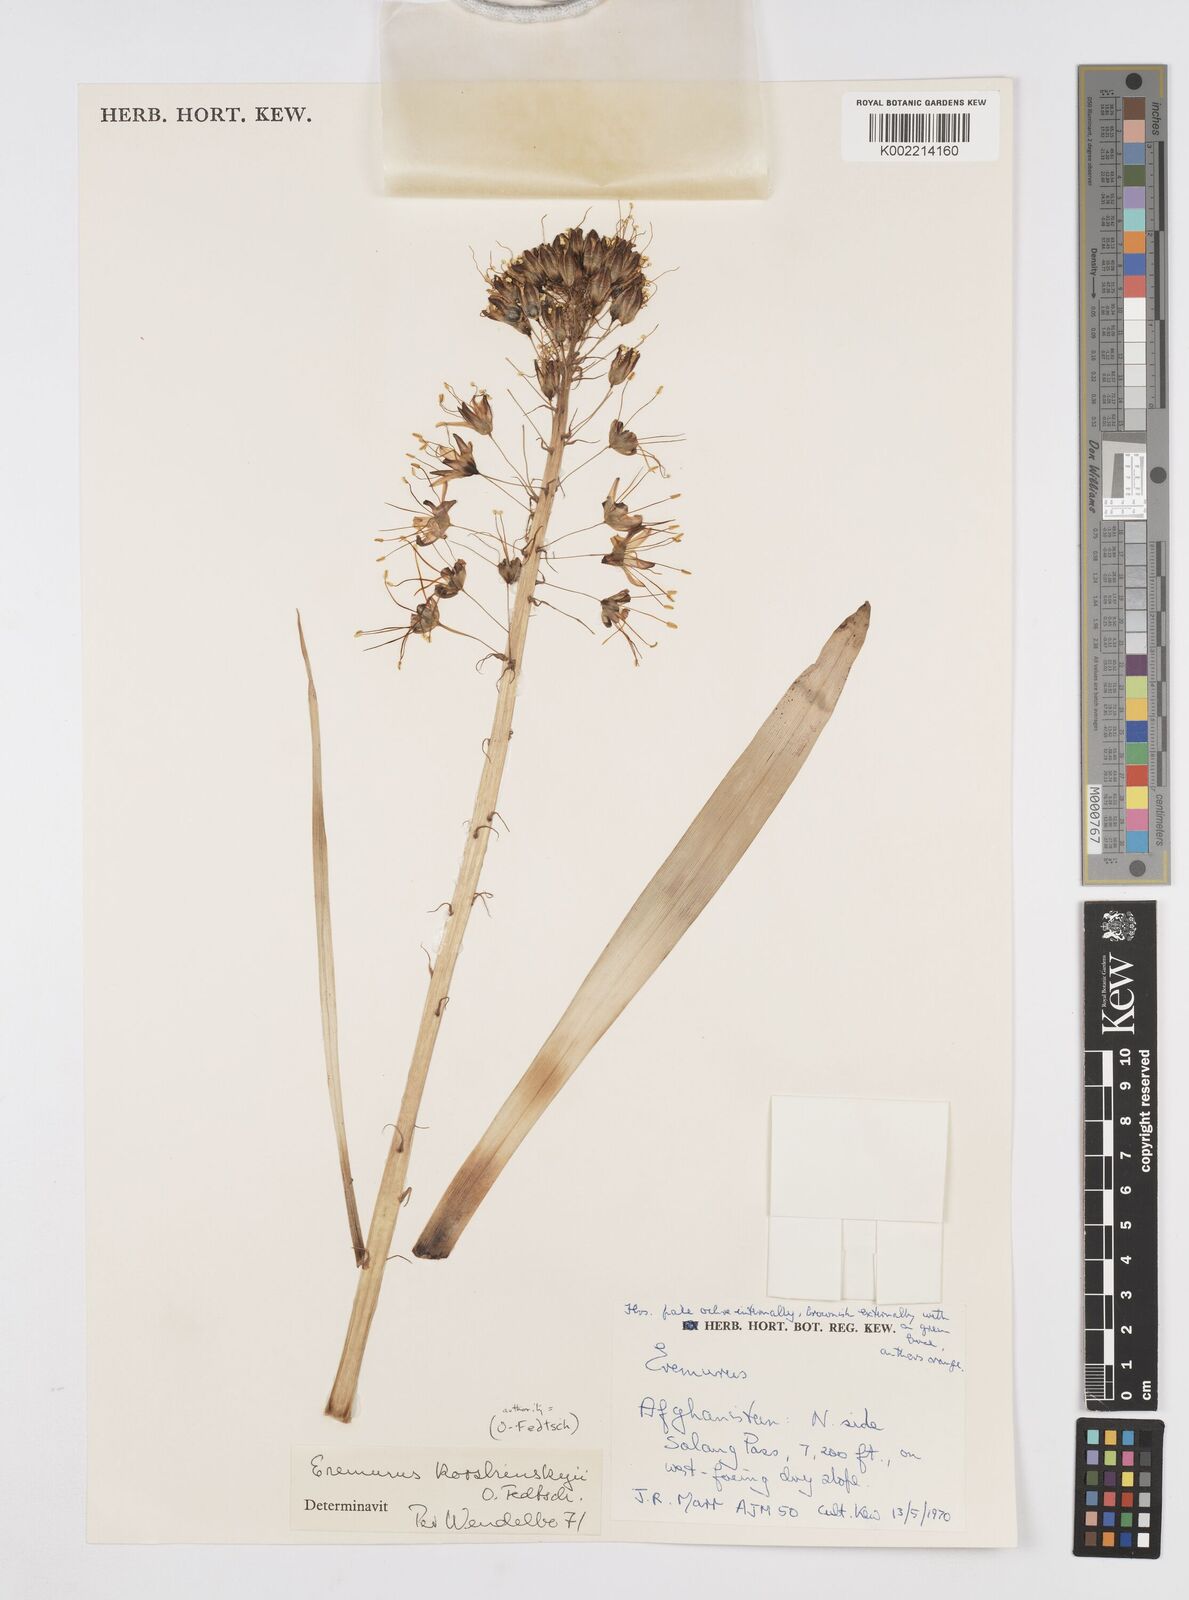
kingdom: Plantae
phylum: Tracheophyta
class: Liliopsida
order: Asparagales
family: Asphodelaceae
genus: Eremurus
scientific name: Eremurus korshinskyi
